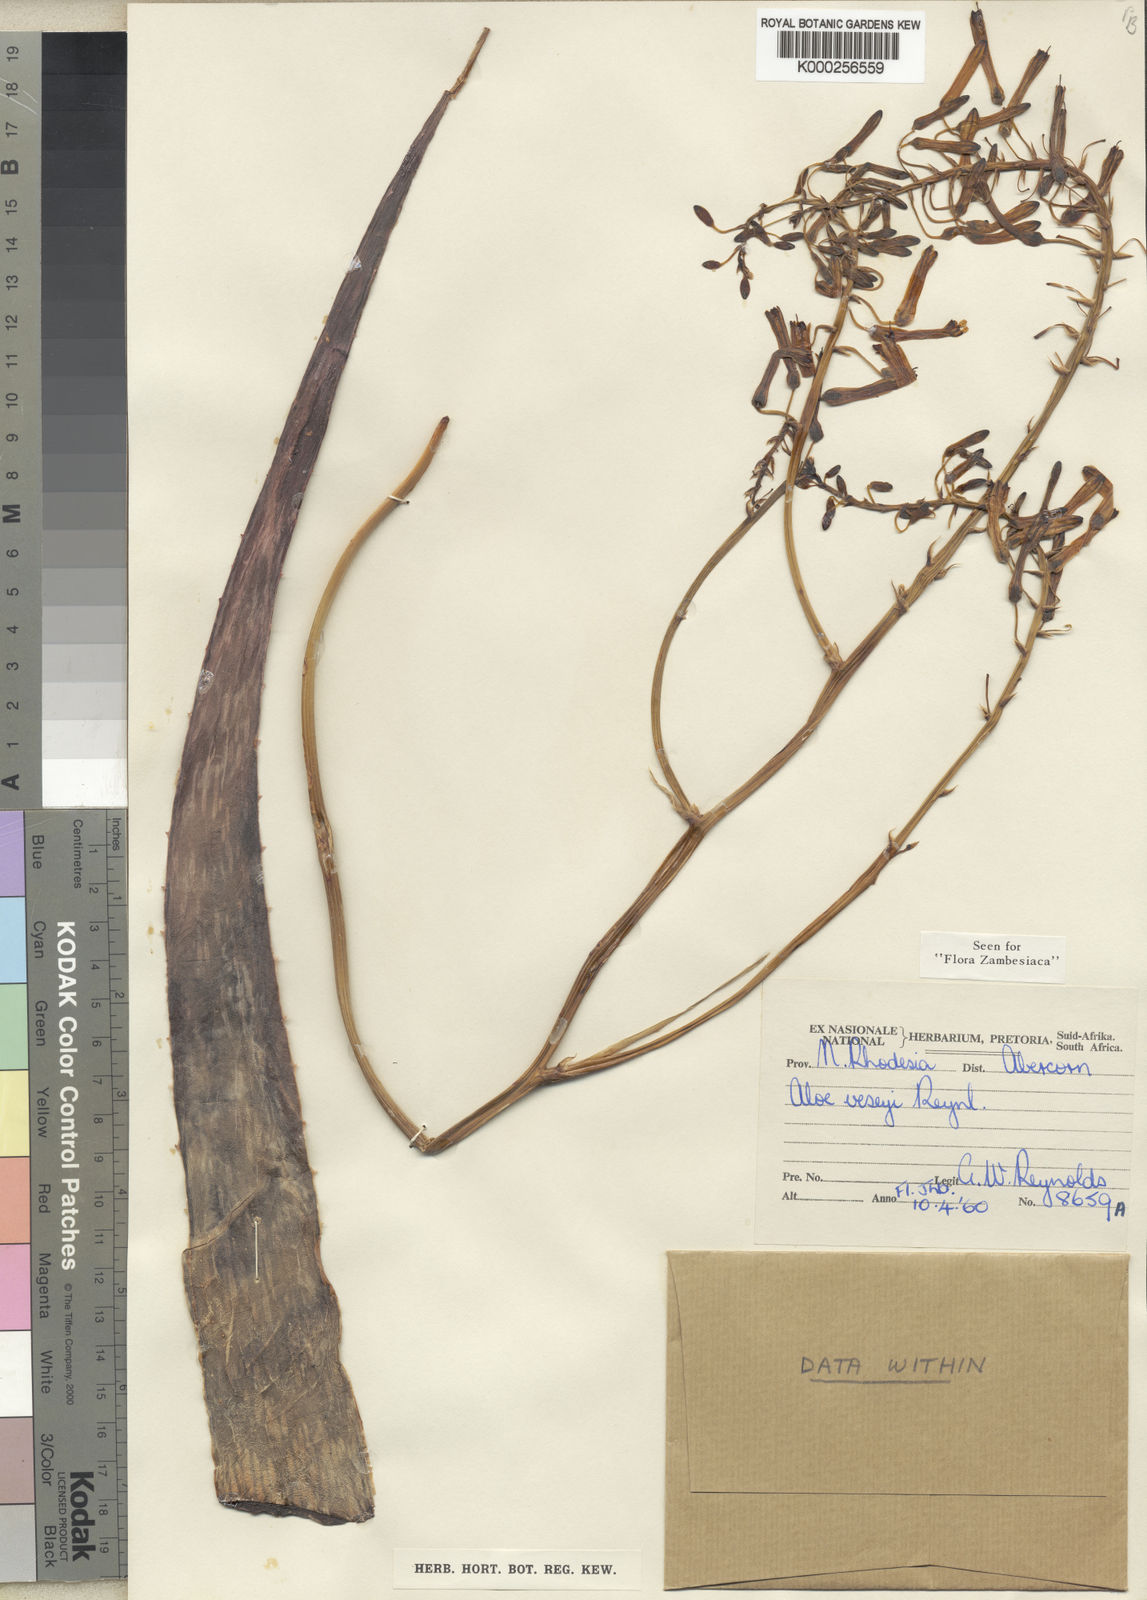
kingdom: Plantae
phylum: Tracheophyta
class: Liliopsida
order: Asparagales
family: Asphodelaceae
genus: Aloe
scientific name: Aloe veseyi
